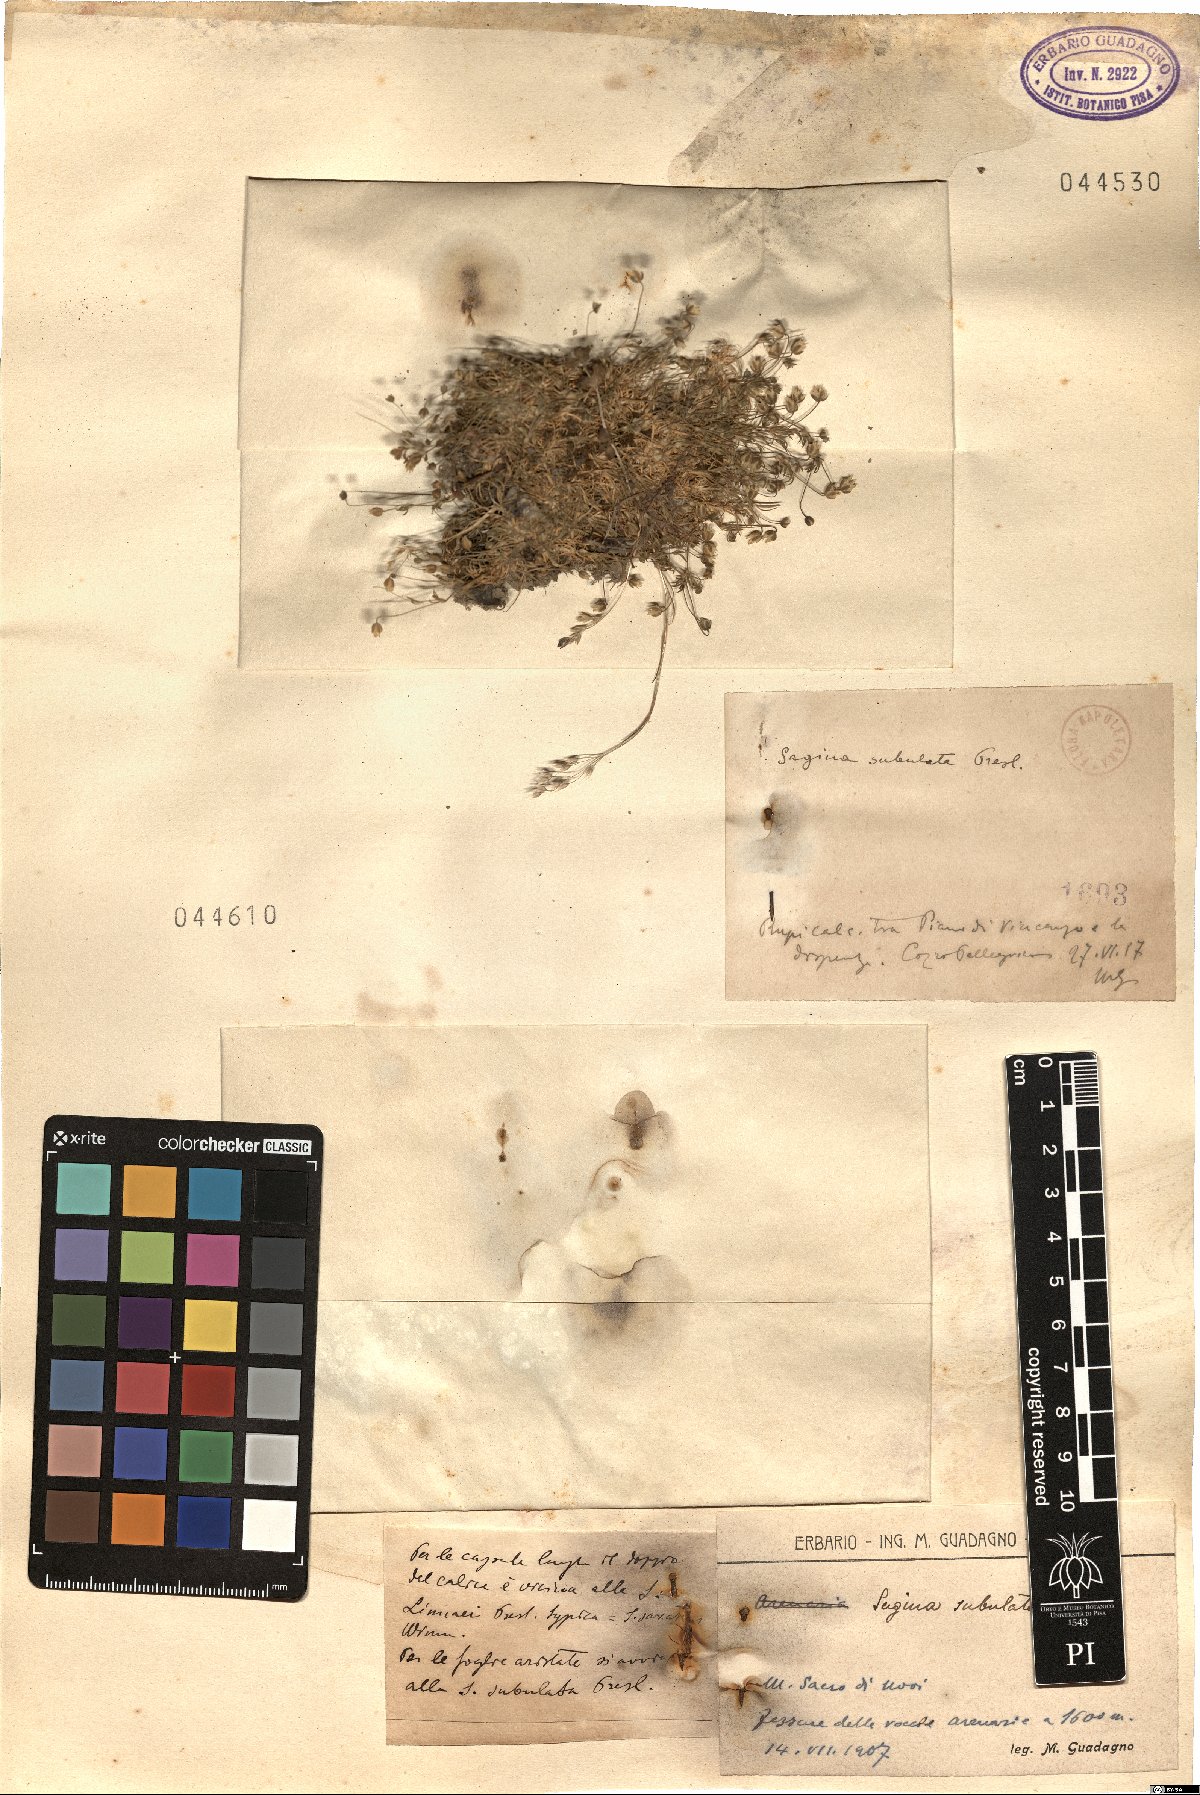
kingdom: Plantae
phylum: Tracheophyta
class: Magnoliopsida
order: Caryophyllales
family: Caryophyllaceae
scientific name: Caryophyllaceae
